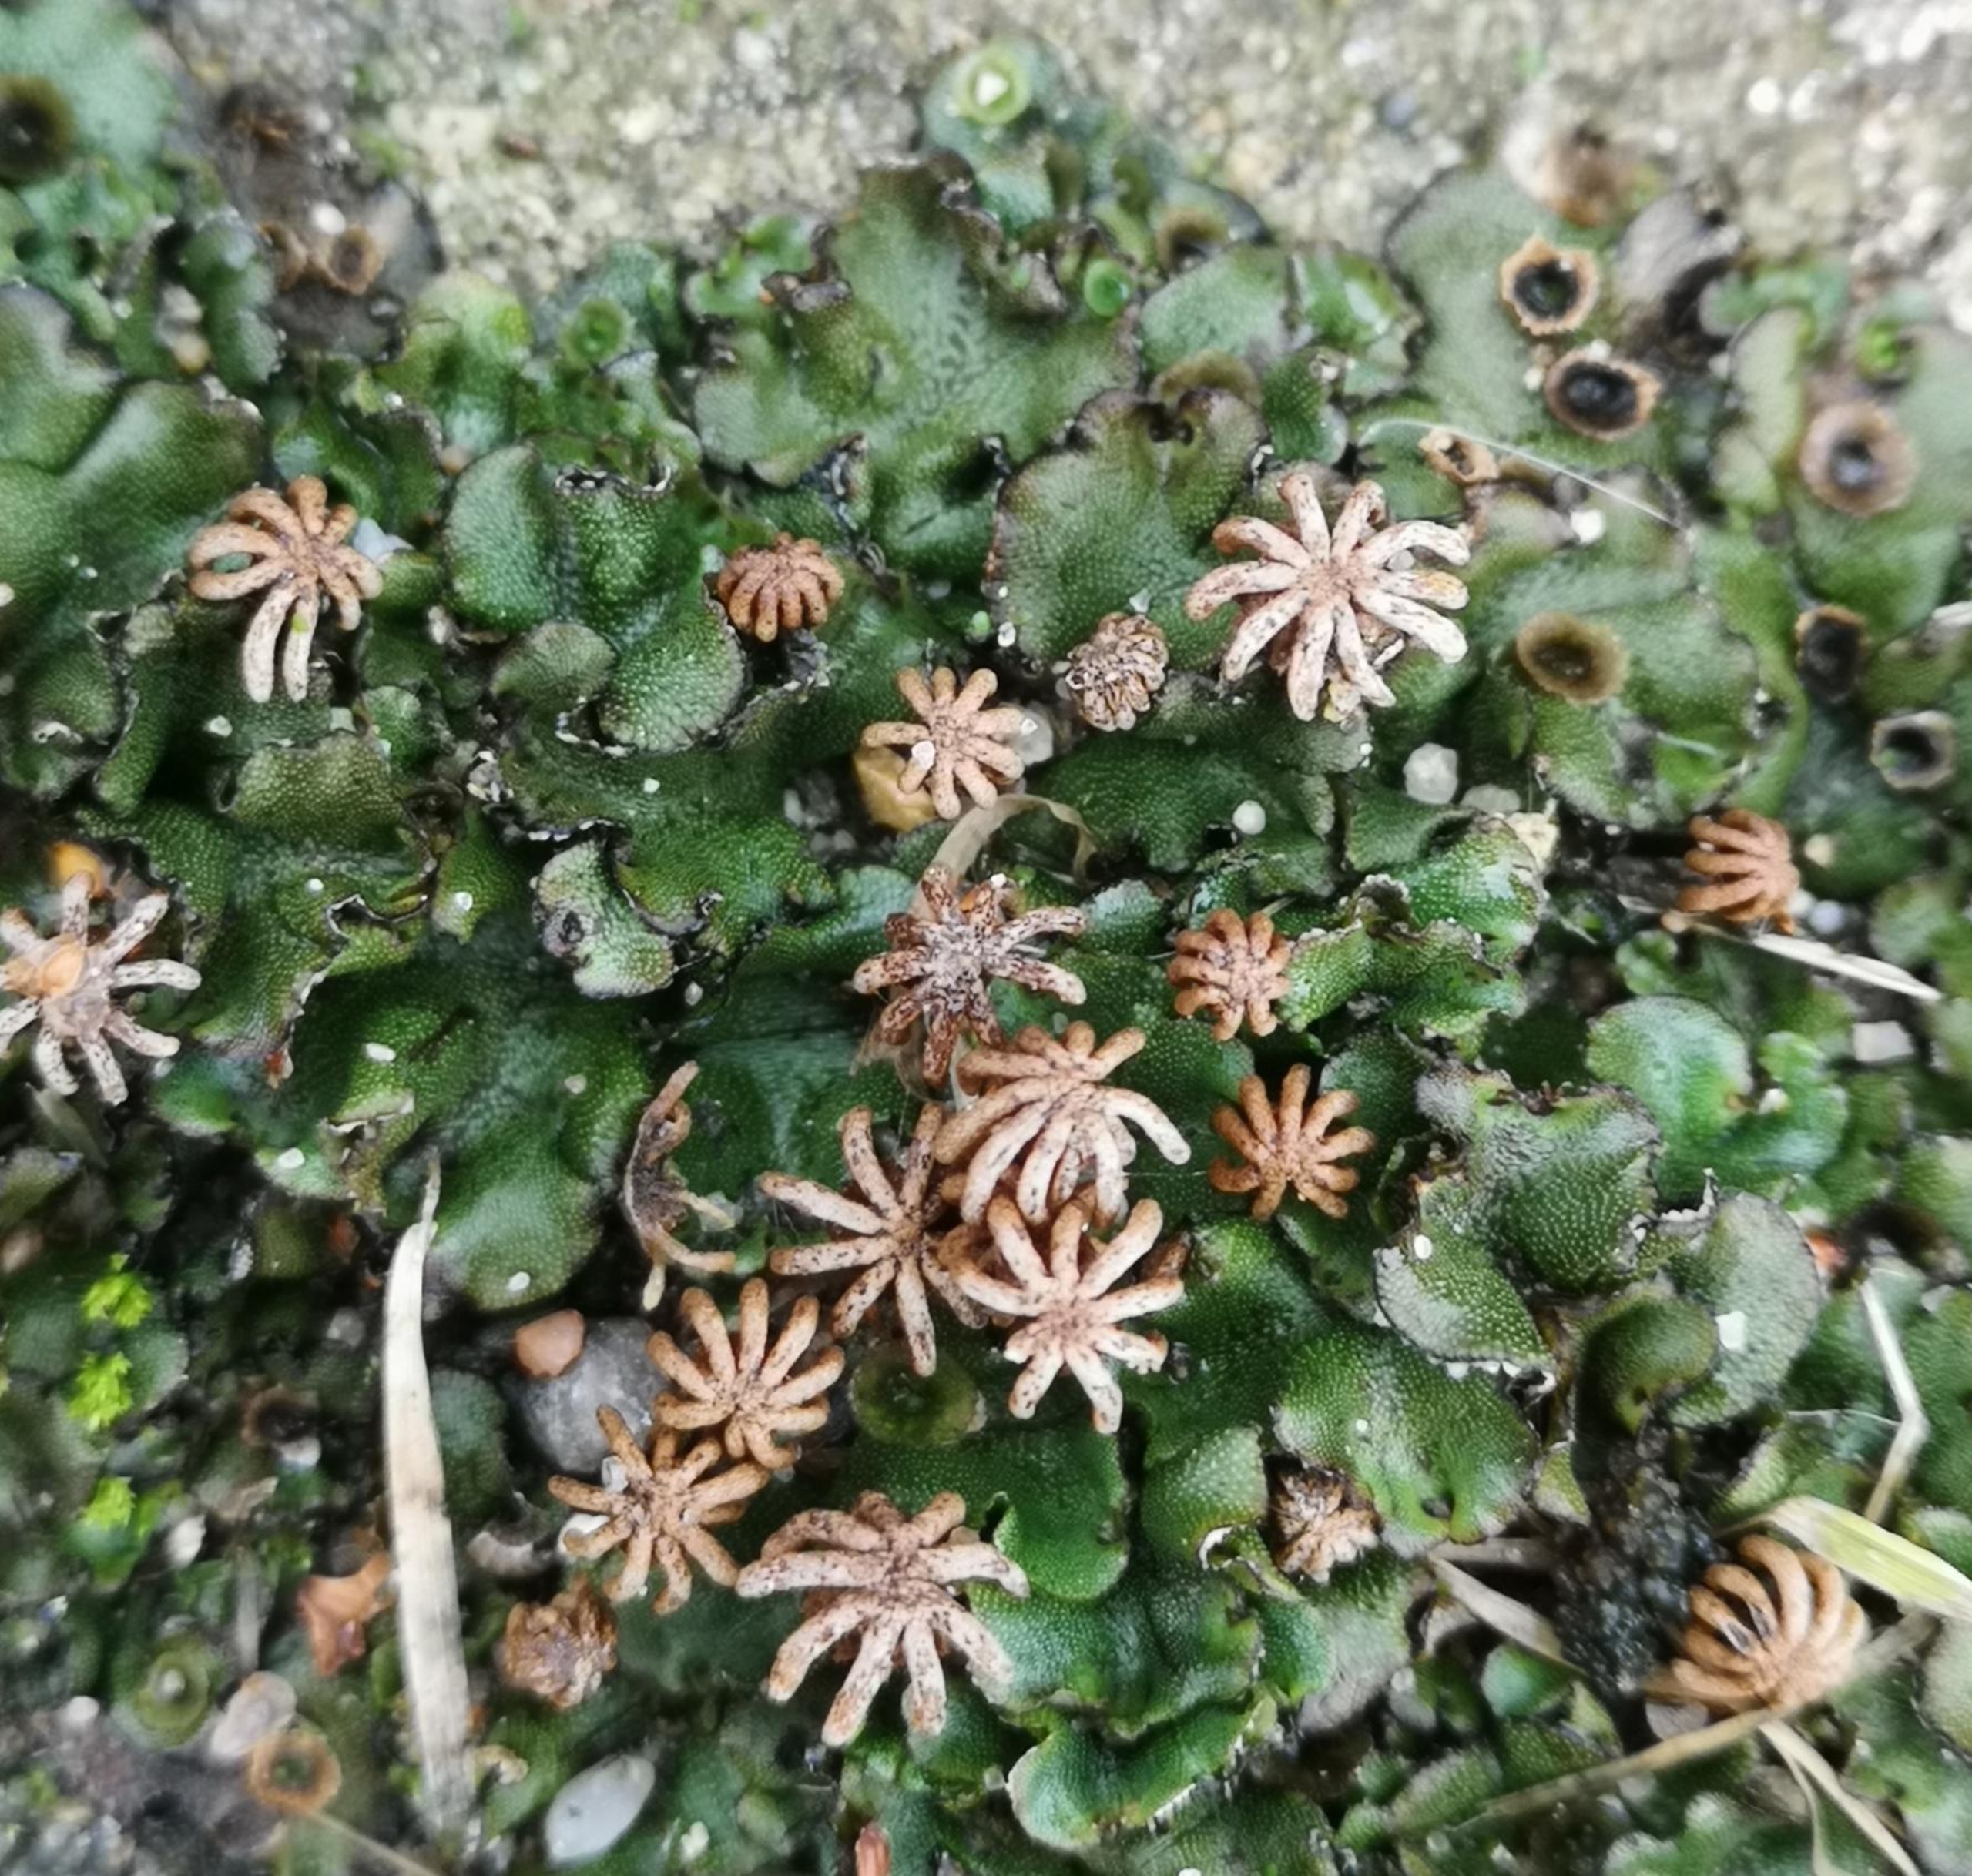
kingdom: Plantae
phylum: Marchantiophyta
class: Marchantiopsida
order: Marchantiales
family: Marchantiaceae
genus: Marchantia
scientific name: Marchantia polymorpha
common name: Almindelig lungemos (underart)
